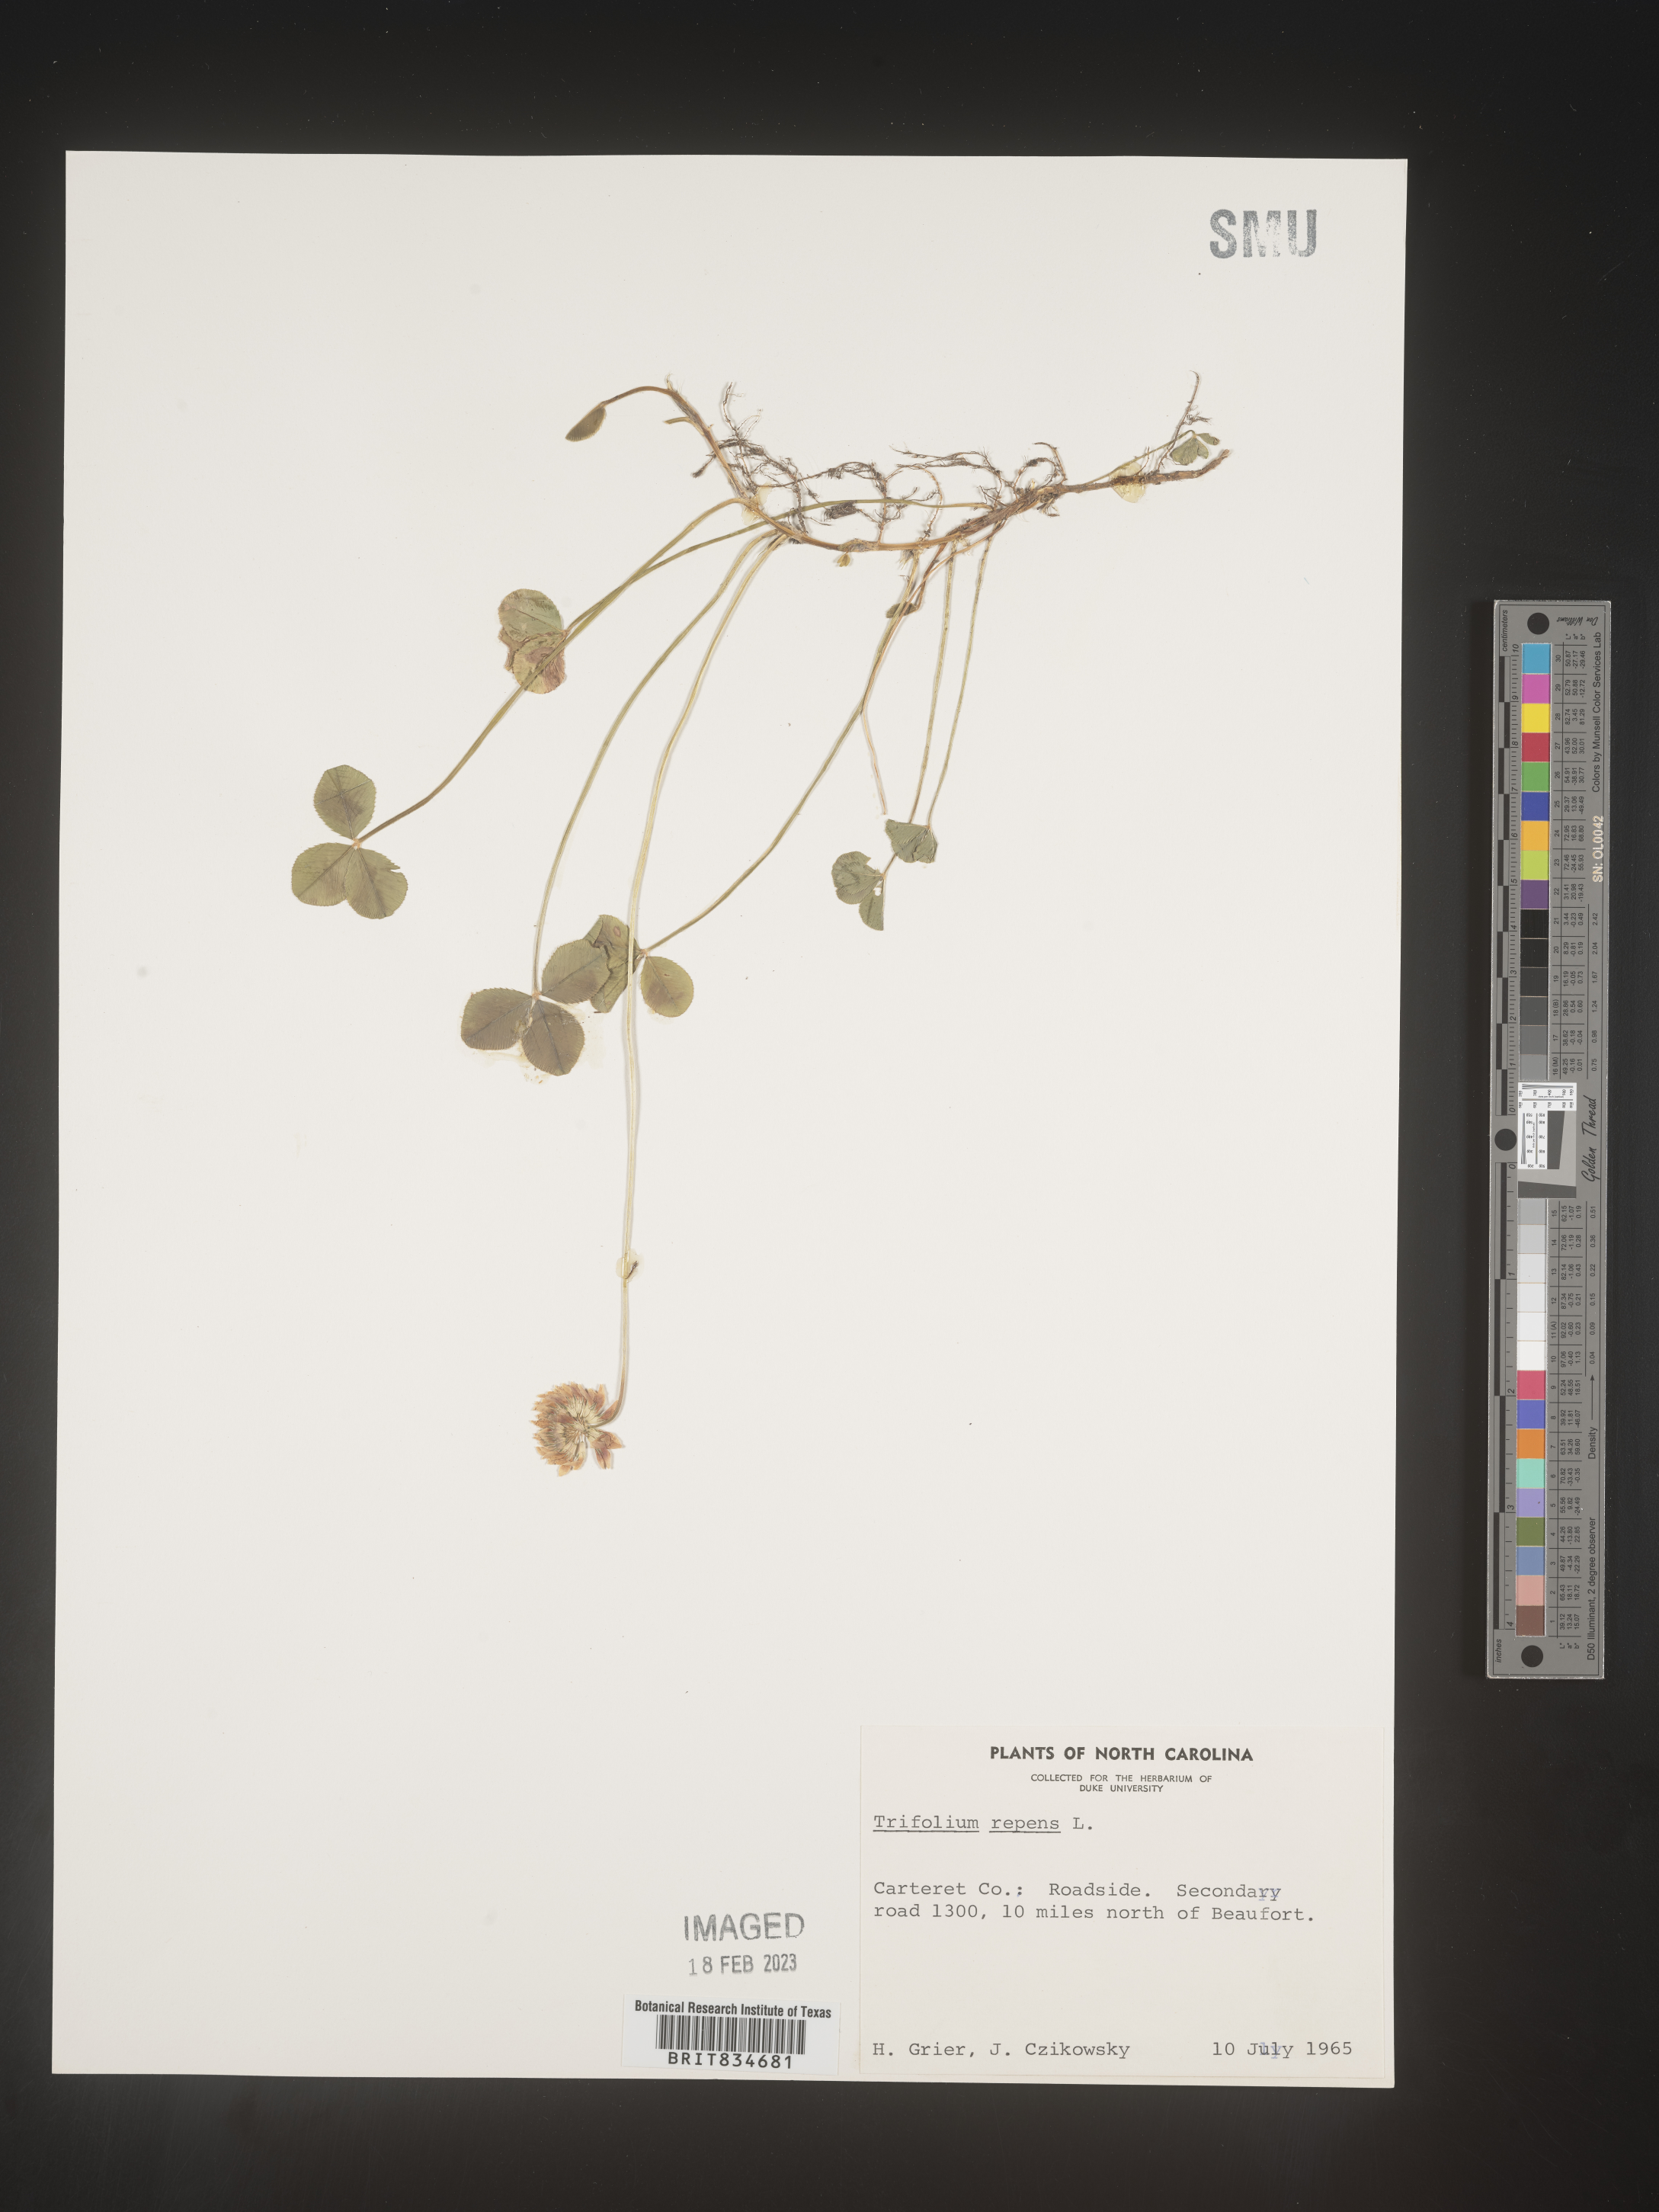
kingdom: Plantae
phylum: Tracheophyta
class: Magnoliopsida
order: Fabales
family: Fabaceae
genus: Trifolium
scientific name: Trifolium repens
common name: White clover
